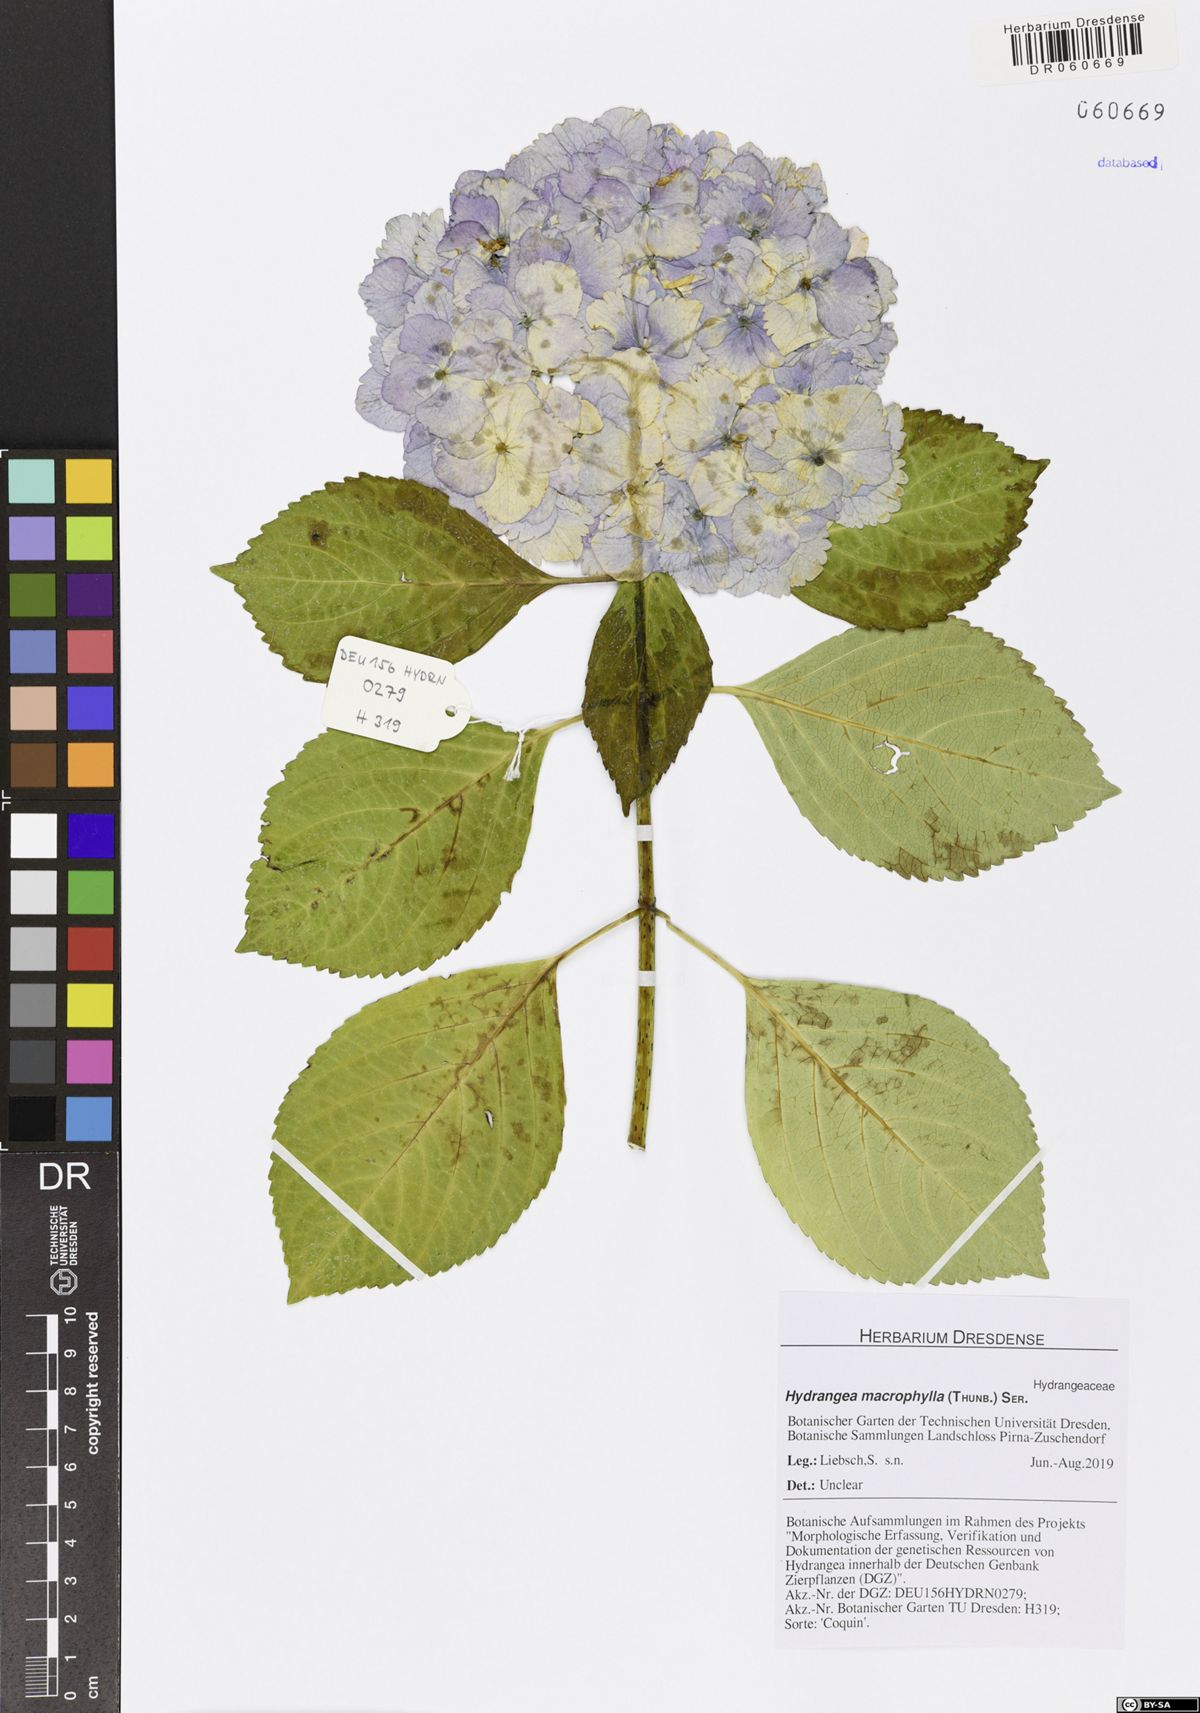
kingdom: Plantae
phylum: Tracheophyta
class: Magnoliopsida
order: Cornales
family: Hydrangeaceae
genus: Hydrangea
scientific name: Hydrangea macrophylla
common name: Hydrangea
